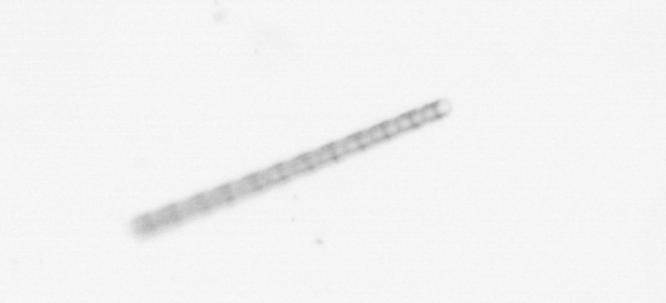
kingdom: Chromista
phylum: Ochrophyta
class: Bacillariophyceae
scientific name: Bacillariophyceae
